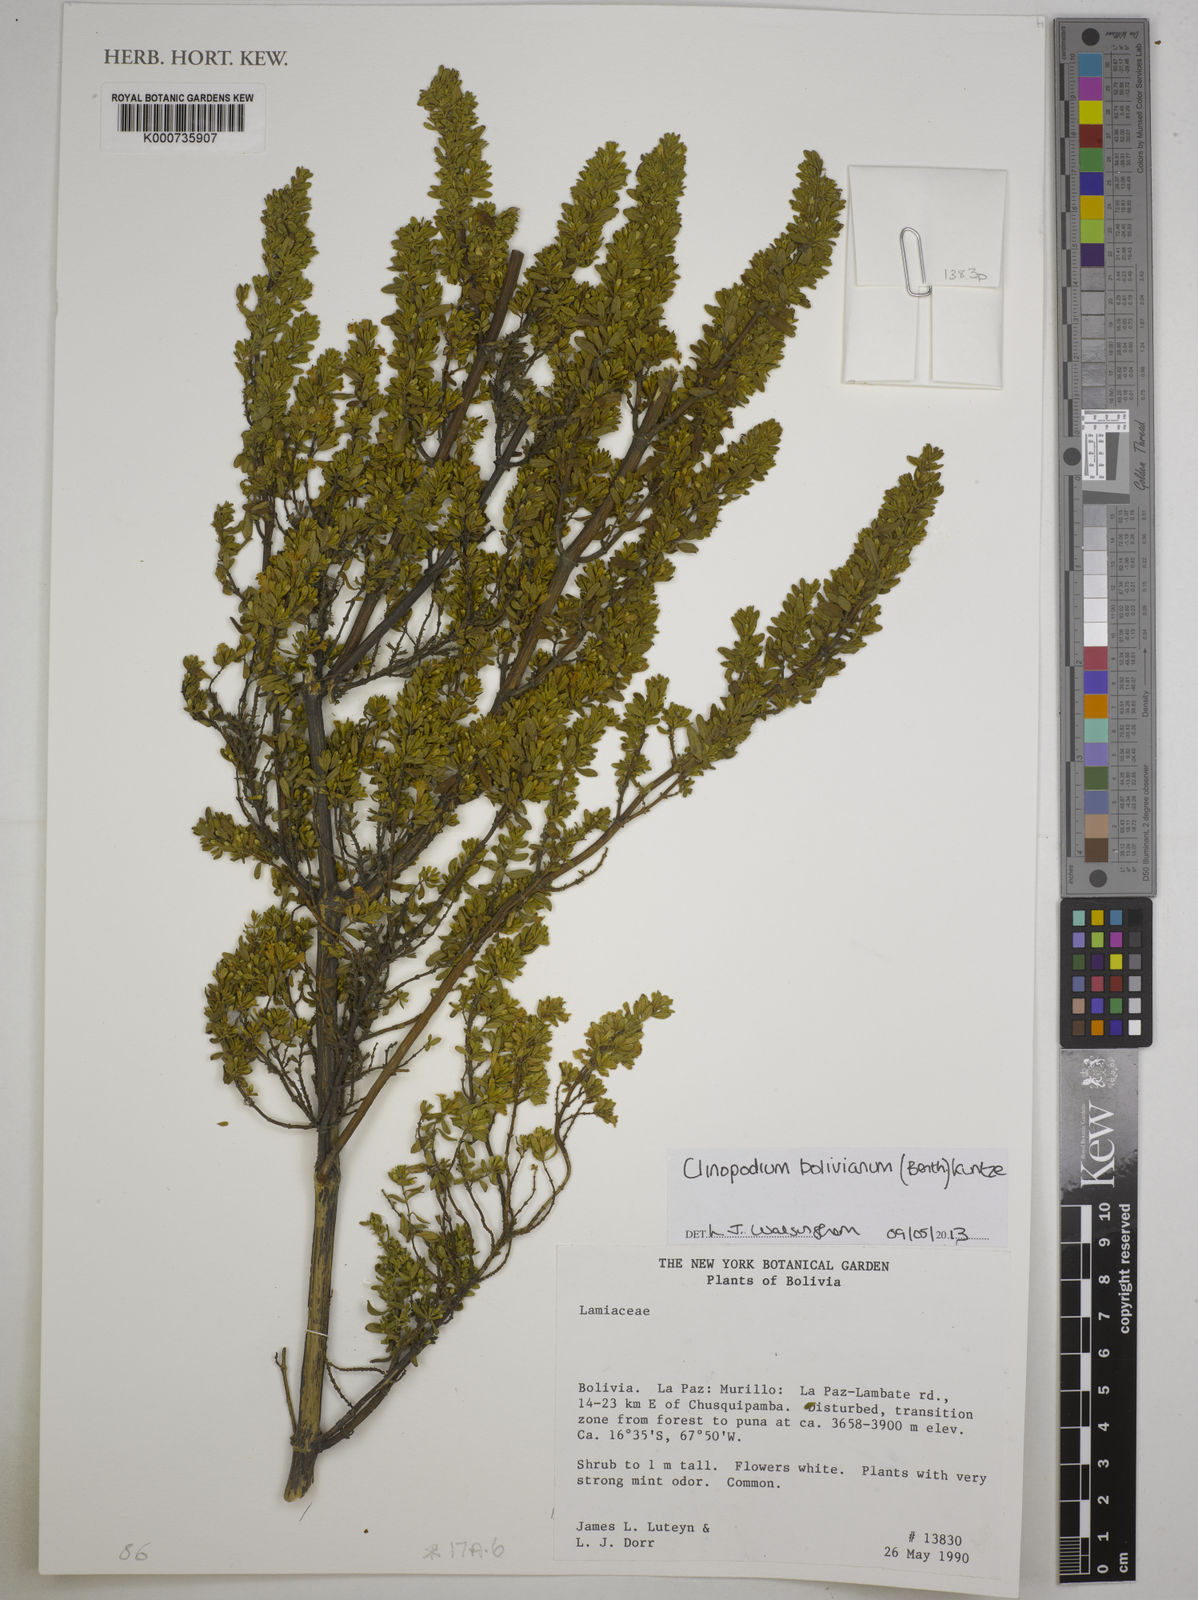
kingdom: Plantae
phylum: Tracheophyta
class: Magnoliopsida
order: Lamiales
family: Lamiaceae
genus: Clinopodium
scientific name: Clinopodium bolivianum
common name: Inca muña
